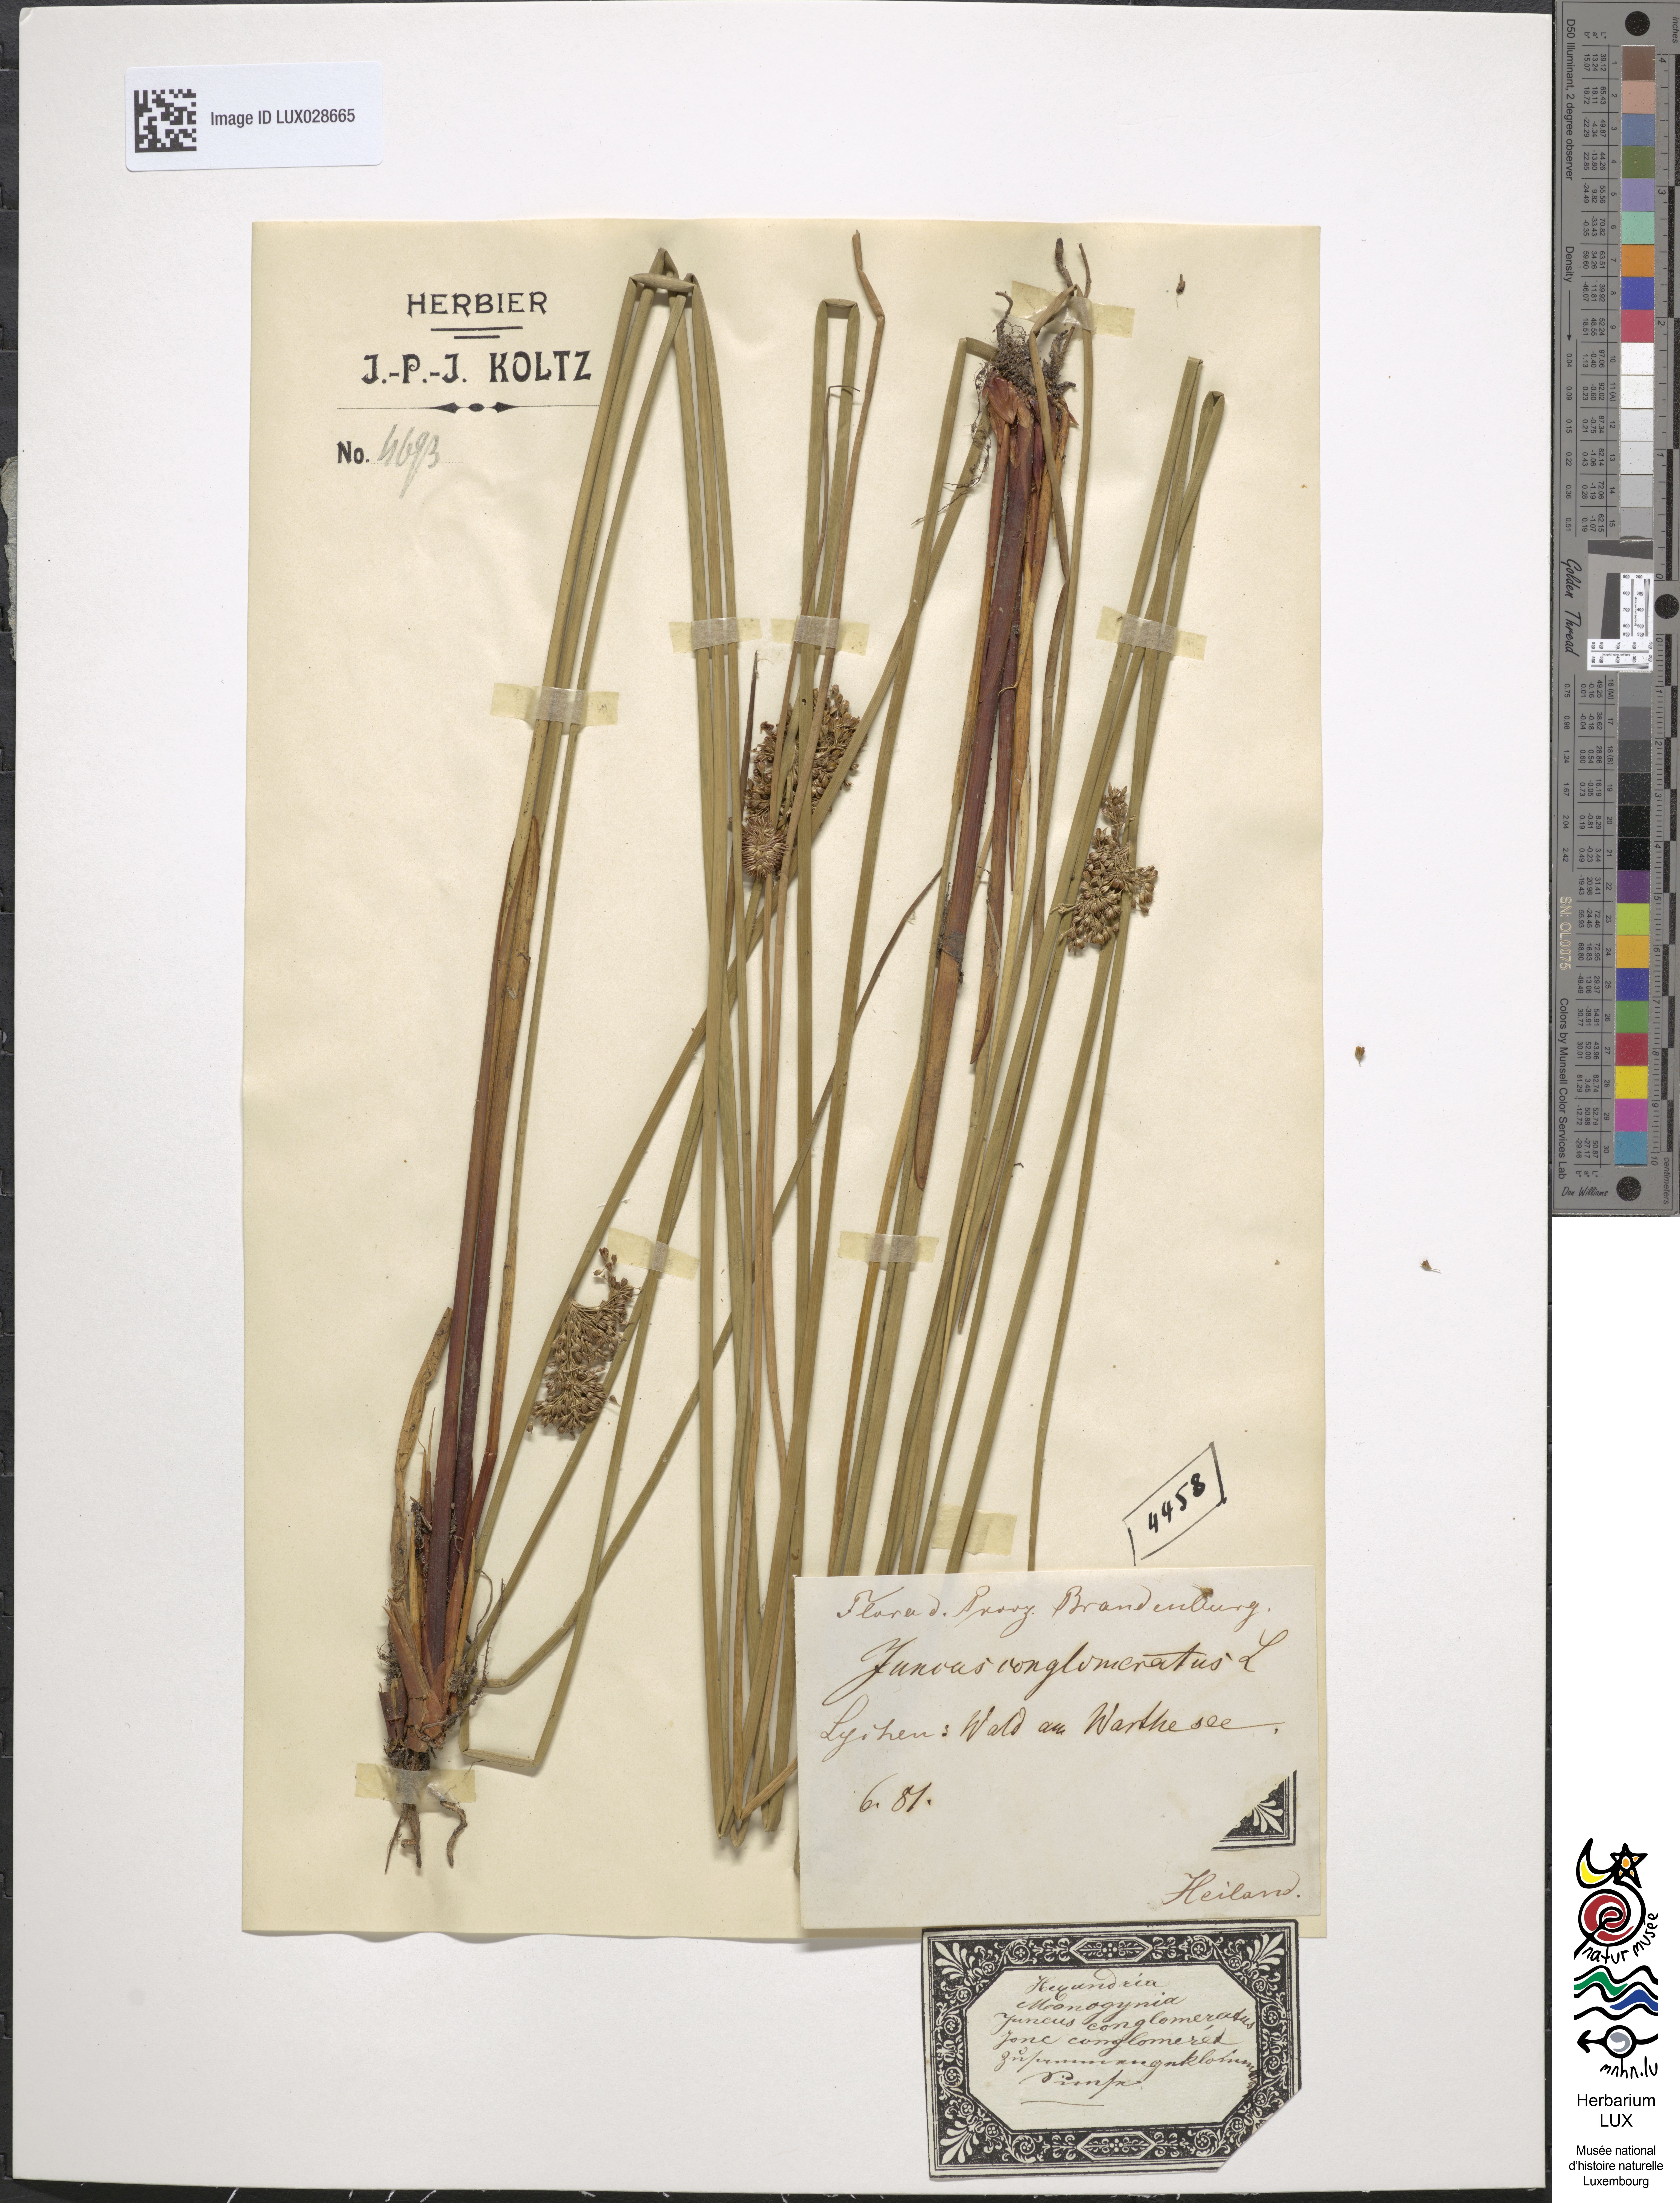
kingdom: Plantae
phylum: Tracheophyta
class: Liliopsida
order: Poales
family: Juncaceae
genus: Juncus
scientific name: Juncus conglomeratus
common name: Compact rush
